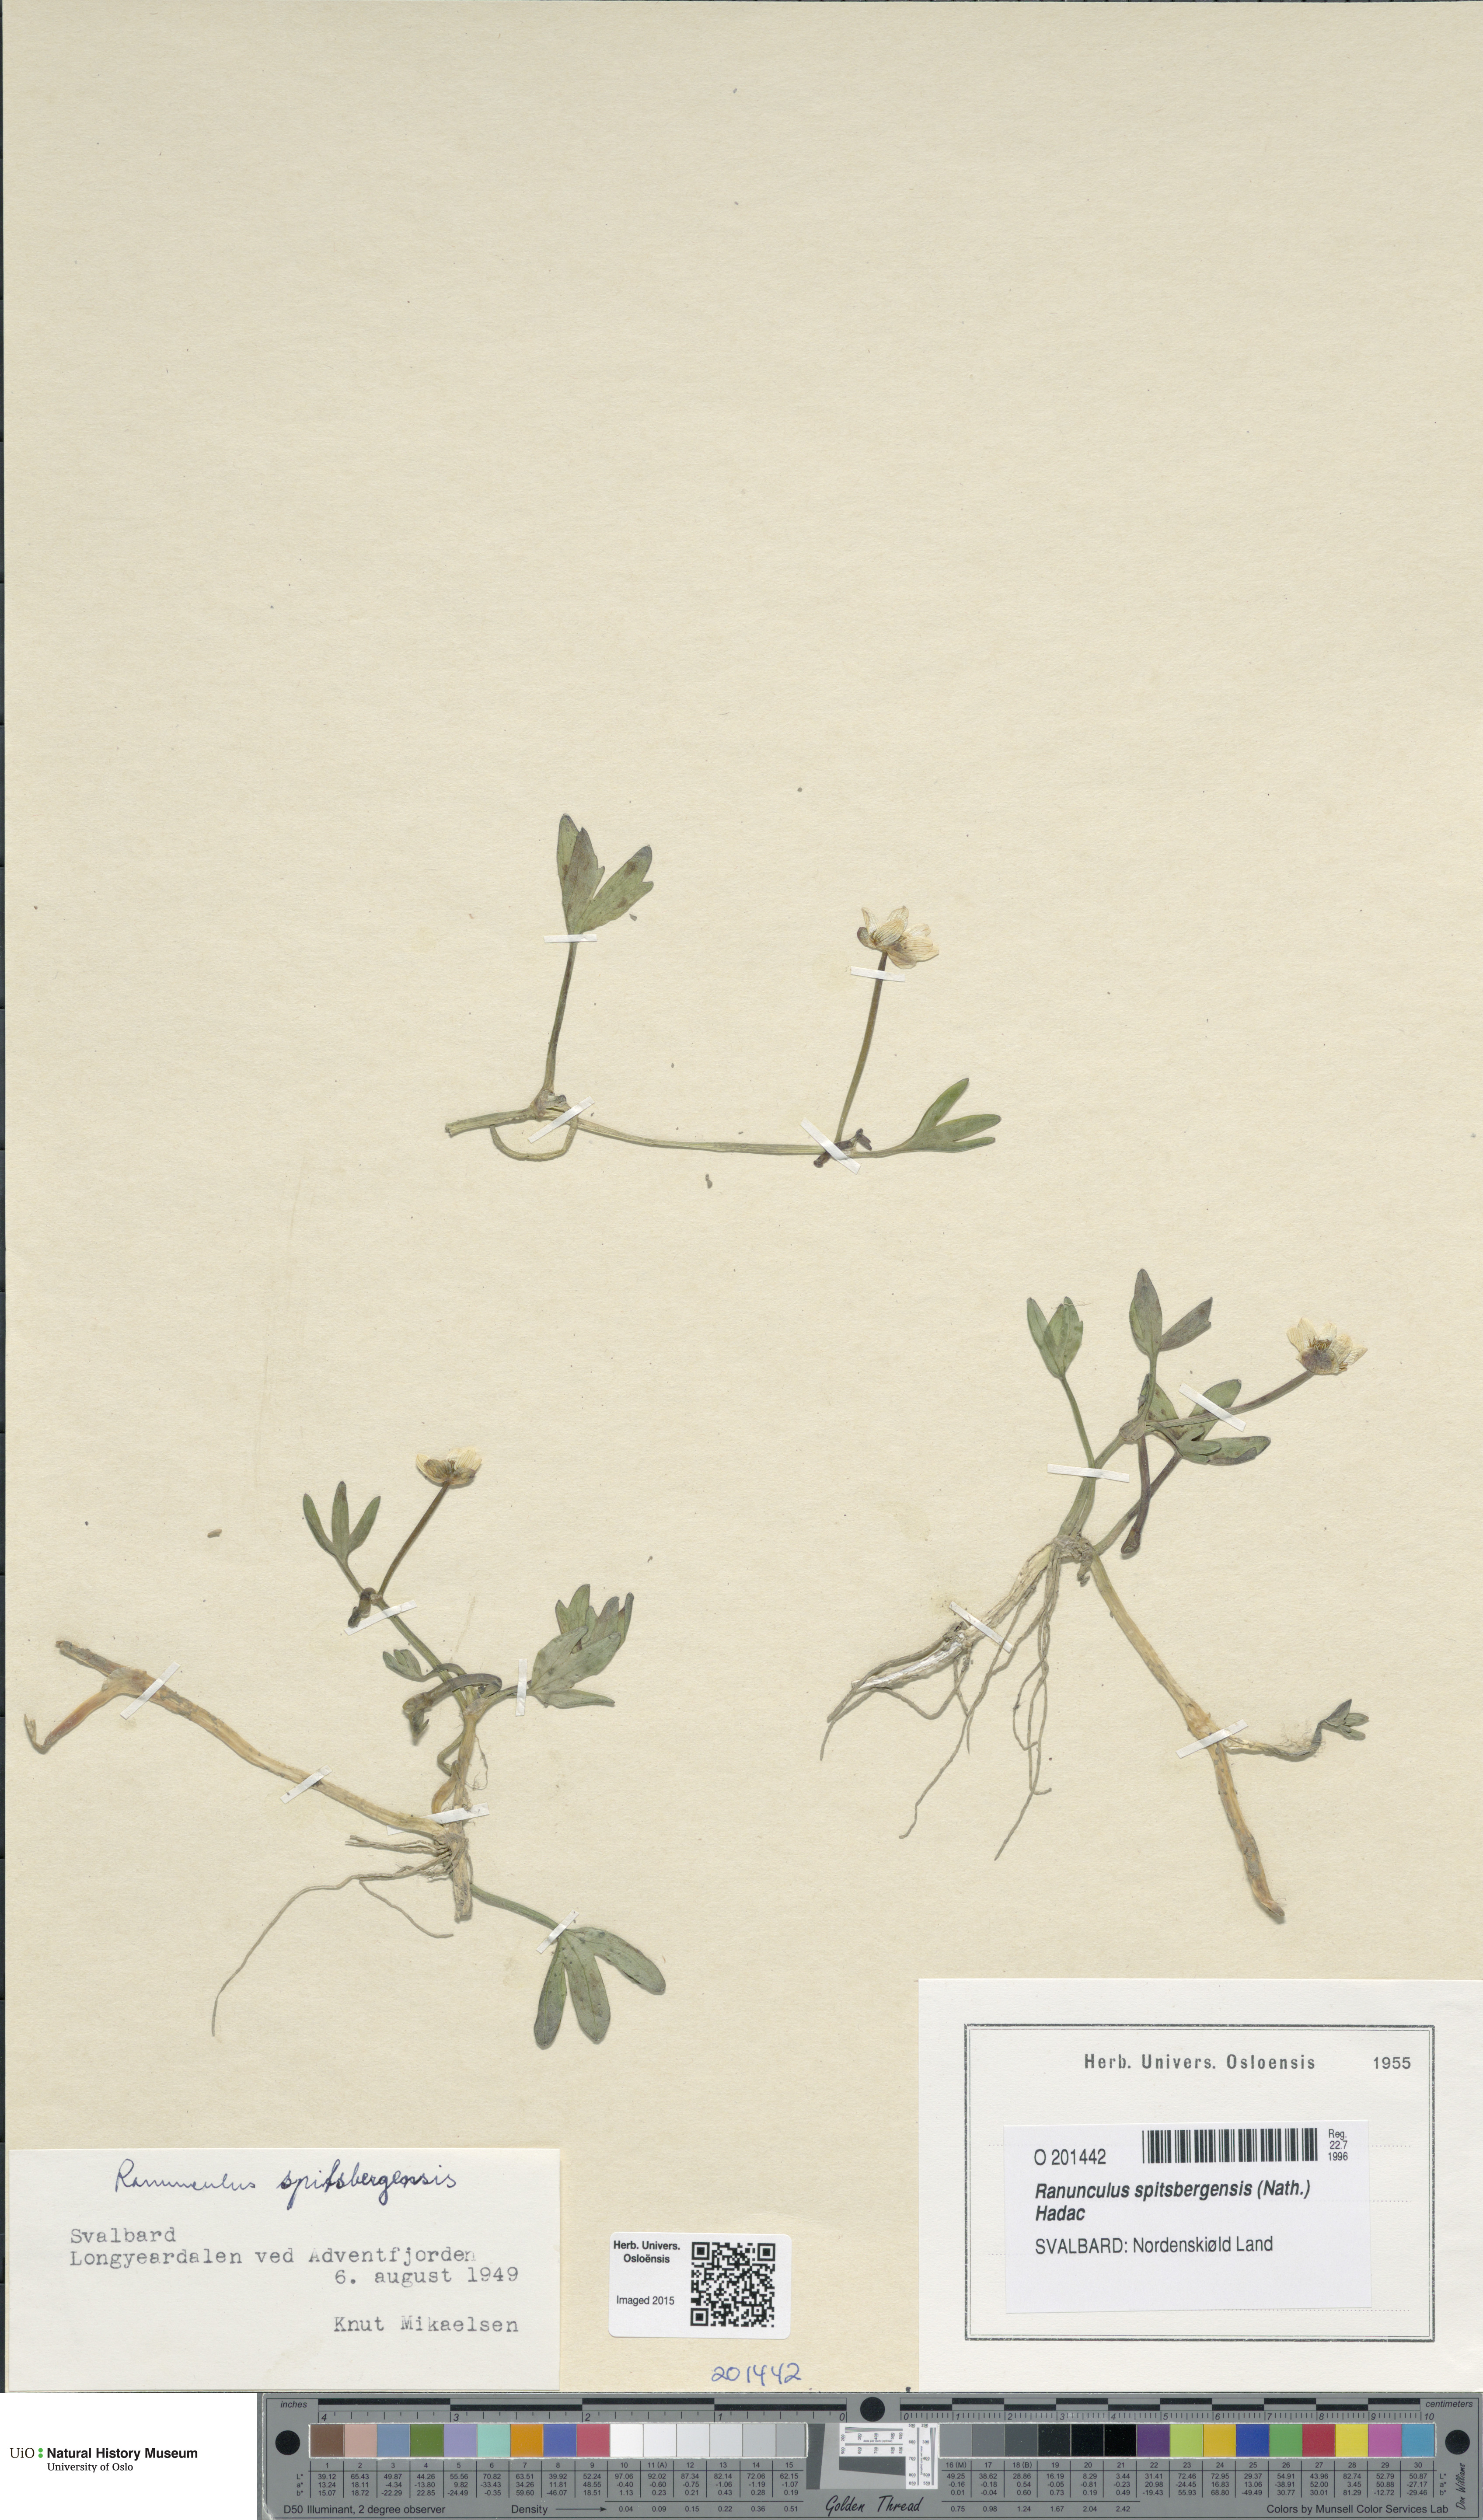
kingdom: Plantae
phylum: Tracheophyta
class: Magnoliopsida
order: Ranunculales
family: Ranunculaceae
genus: Coptidium
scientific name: Coptidium spitsbergense
